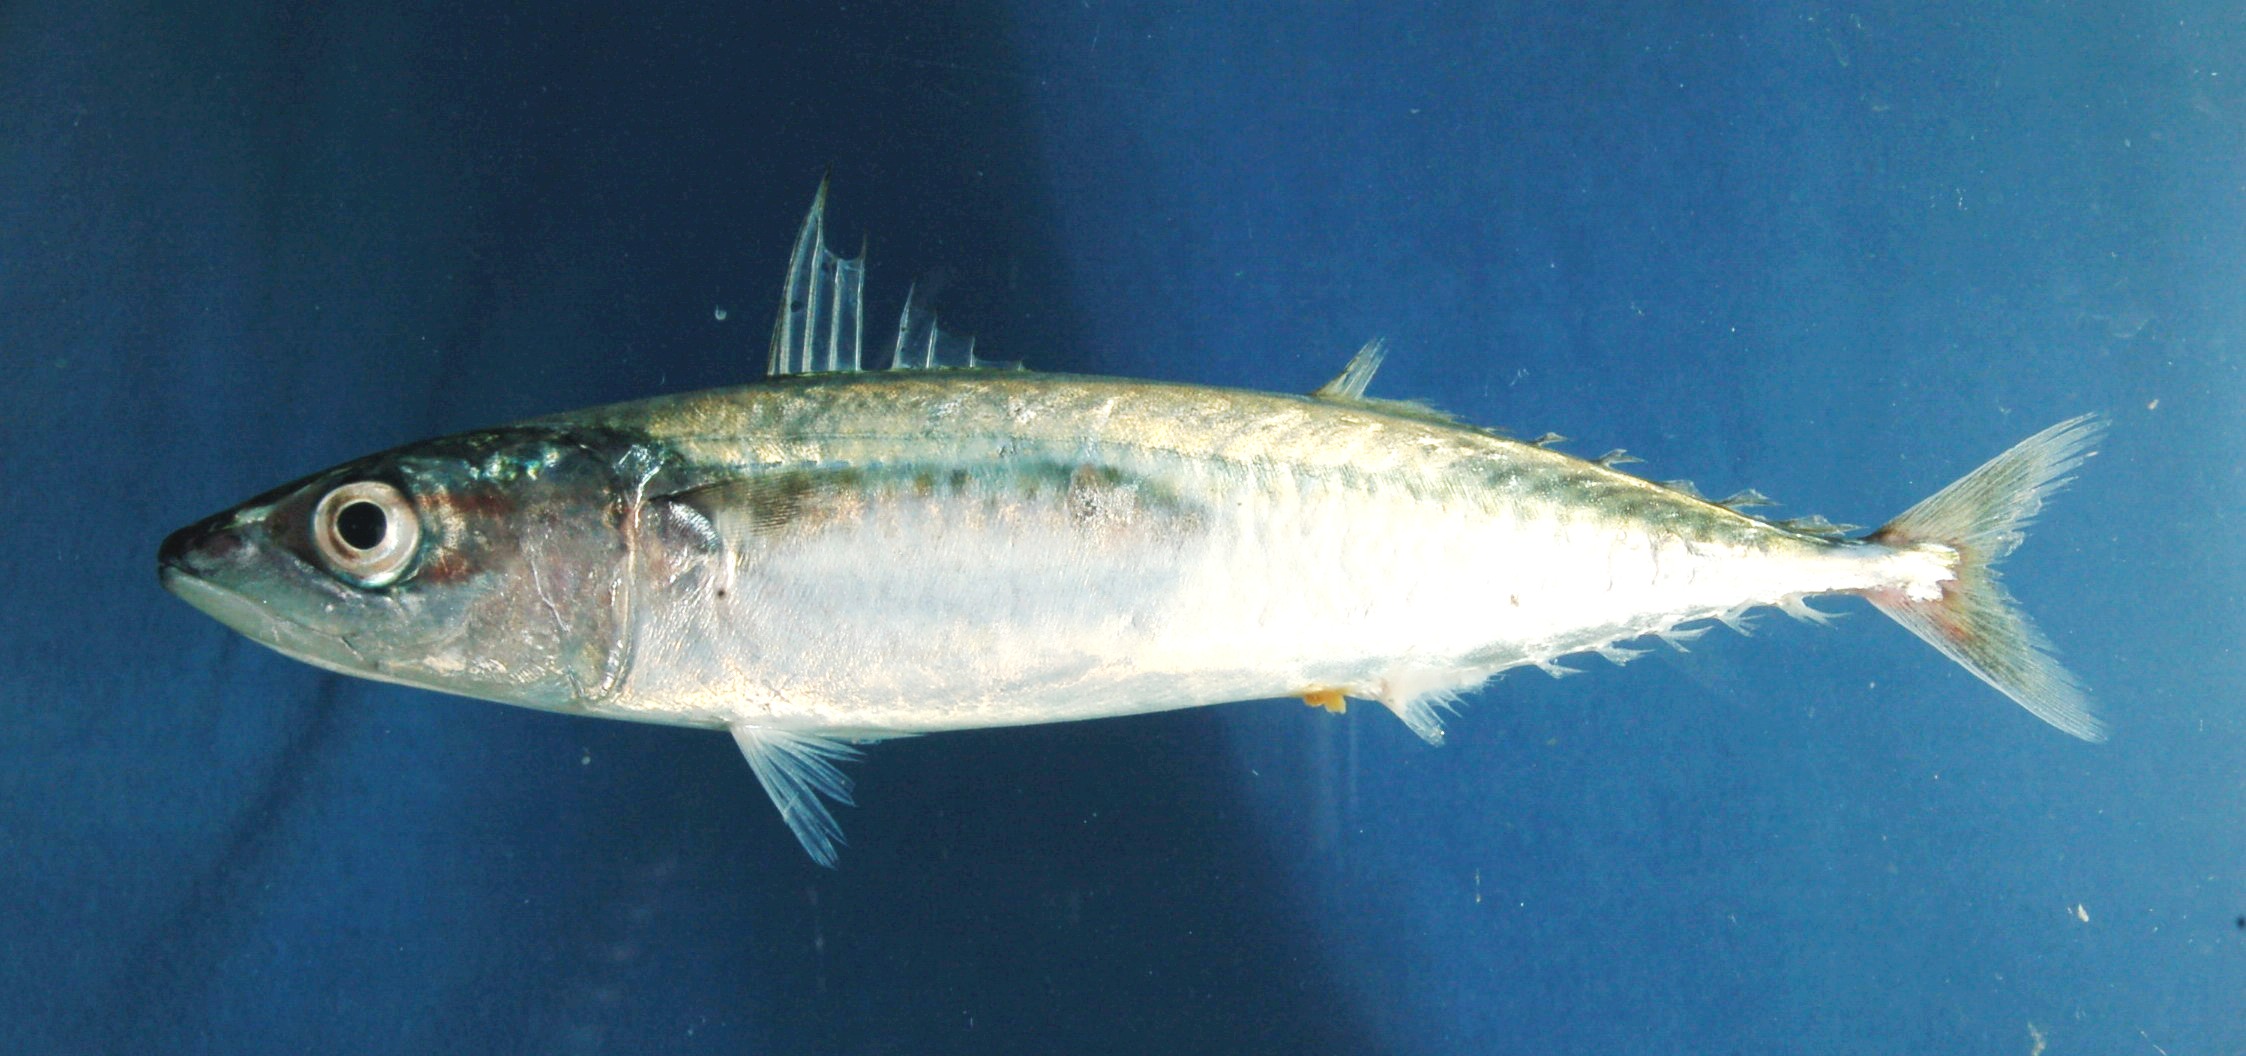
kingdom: Animalia
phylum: Chordata
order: Perciformes
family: Scombridae
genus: Scomber
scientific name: Scomber japonicus
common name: Chub mackerel
